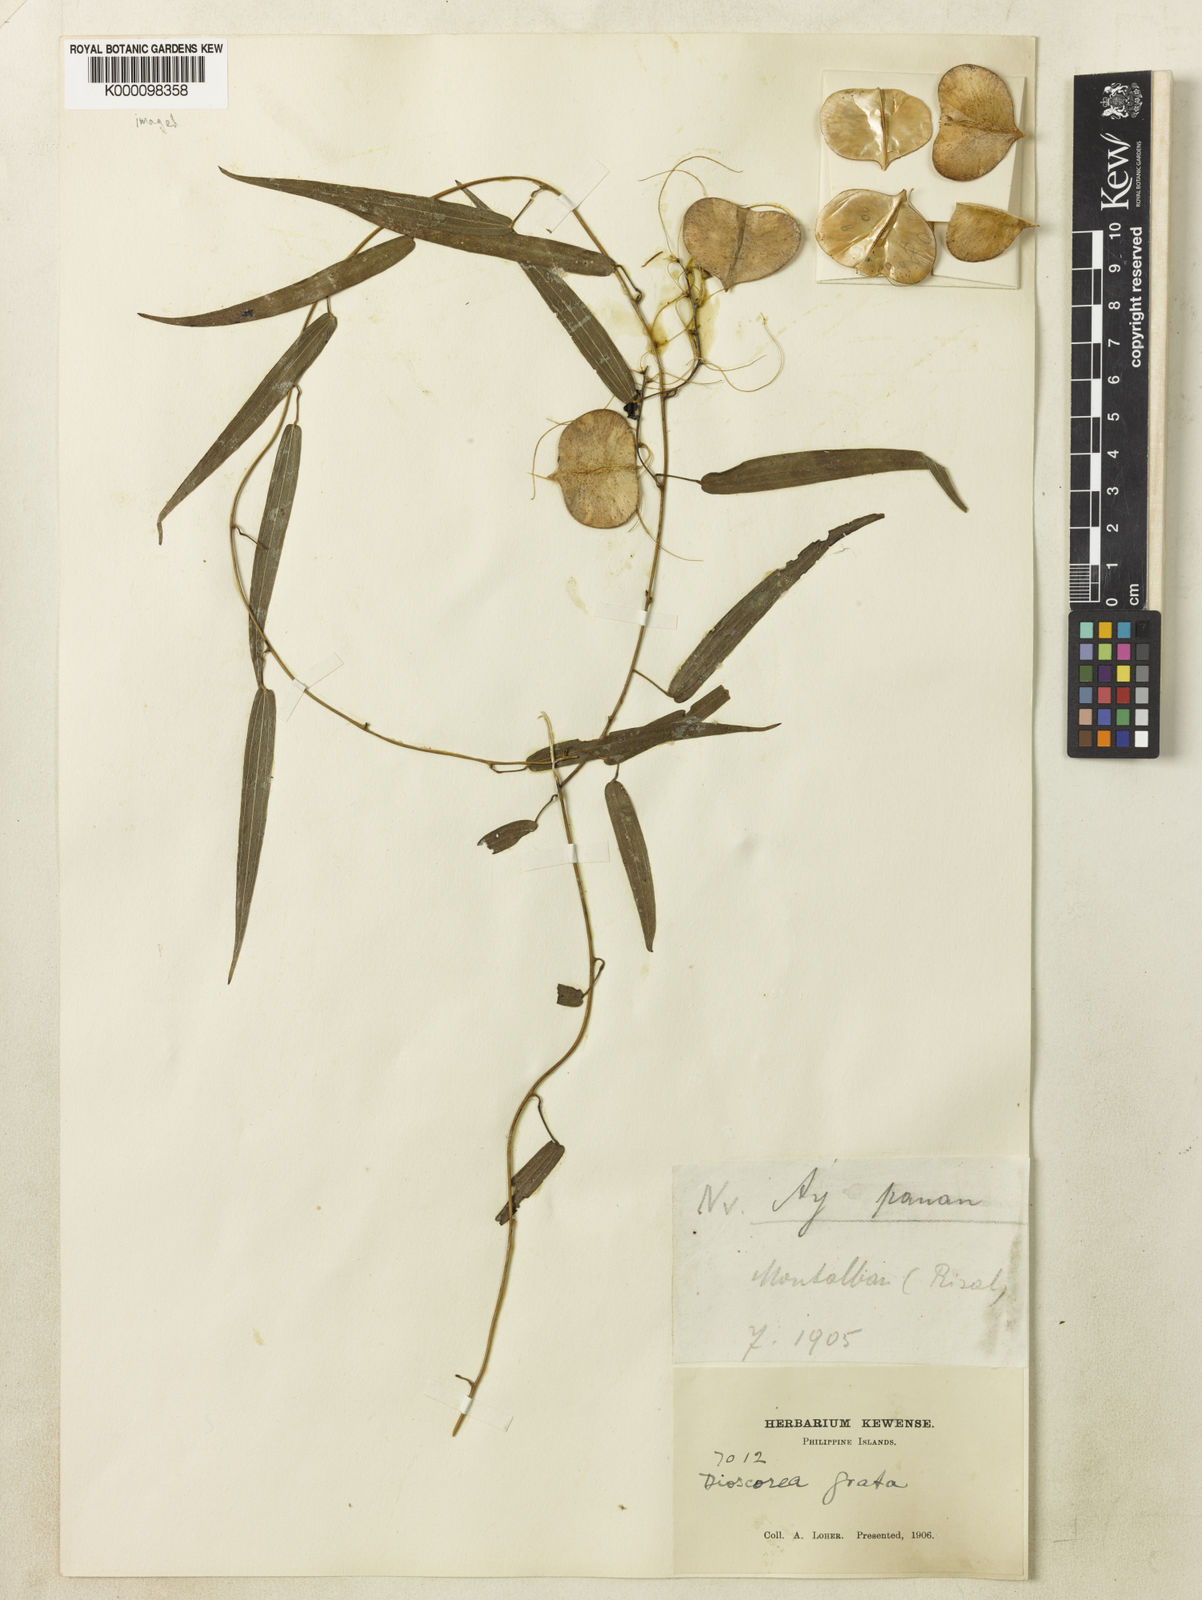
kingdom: Plantae
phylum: Tracheophyta
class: Liliopsida
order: Dioscoreales
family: Dioscoreaceae
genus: Dioscorea
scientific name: Dioscorea grata
